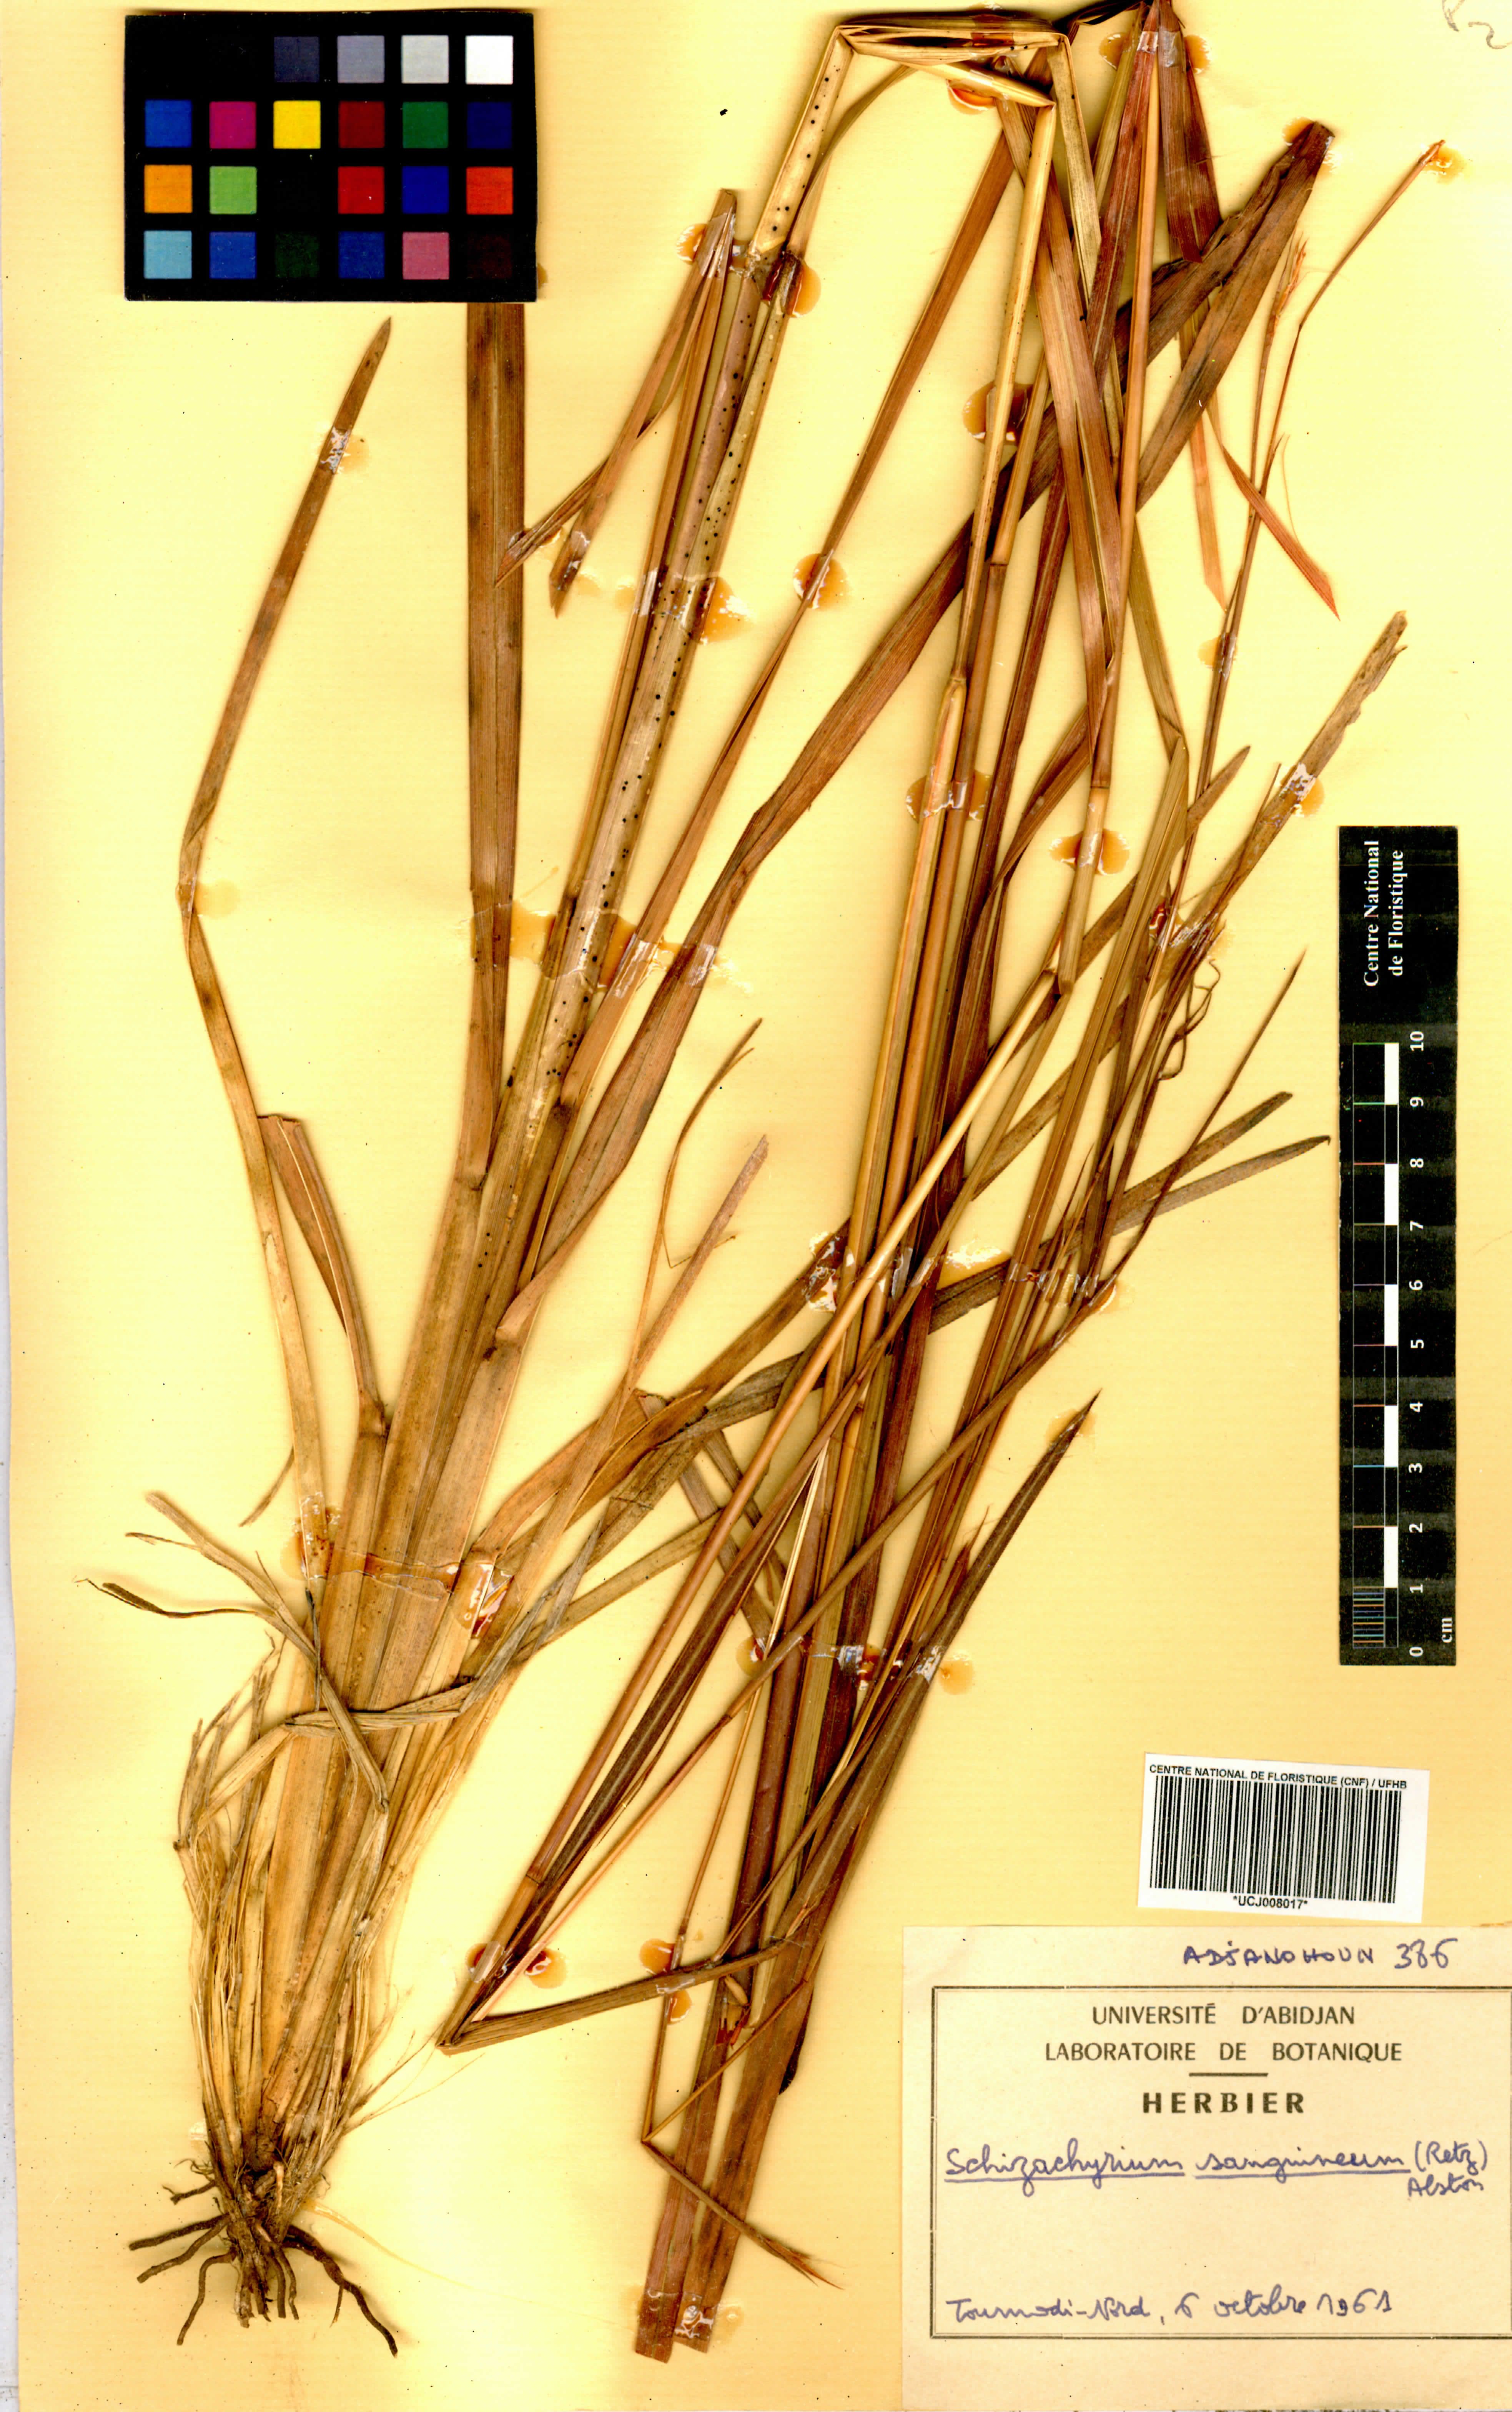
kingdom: Plantae
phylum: Tracheophyta
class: Liliopsida
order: Poales
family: Poaceae
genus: Schizachyrium
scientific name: Schizachyrium sanguineum
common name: Crimson bluestem
